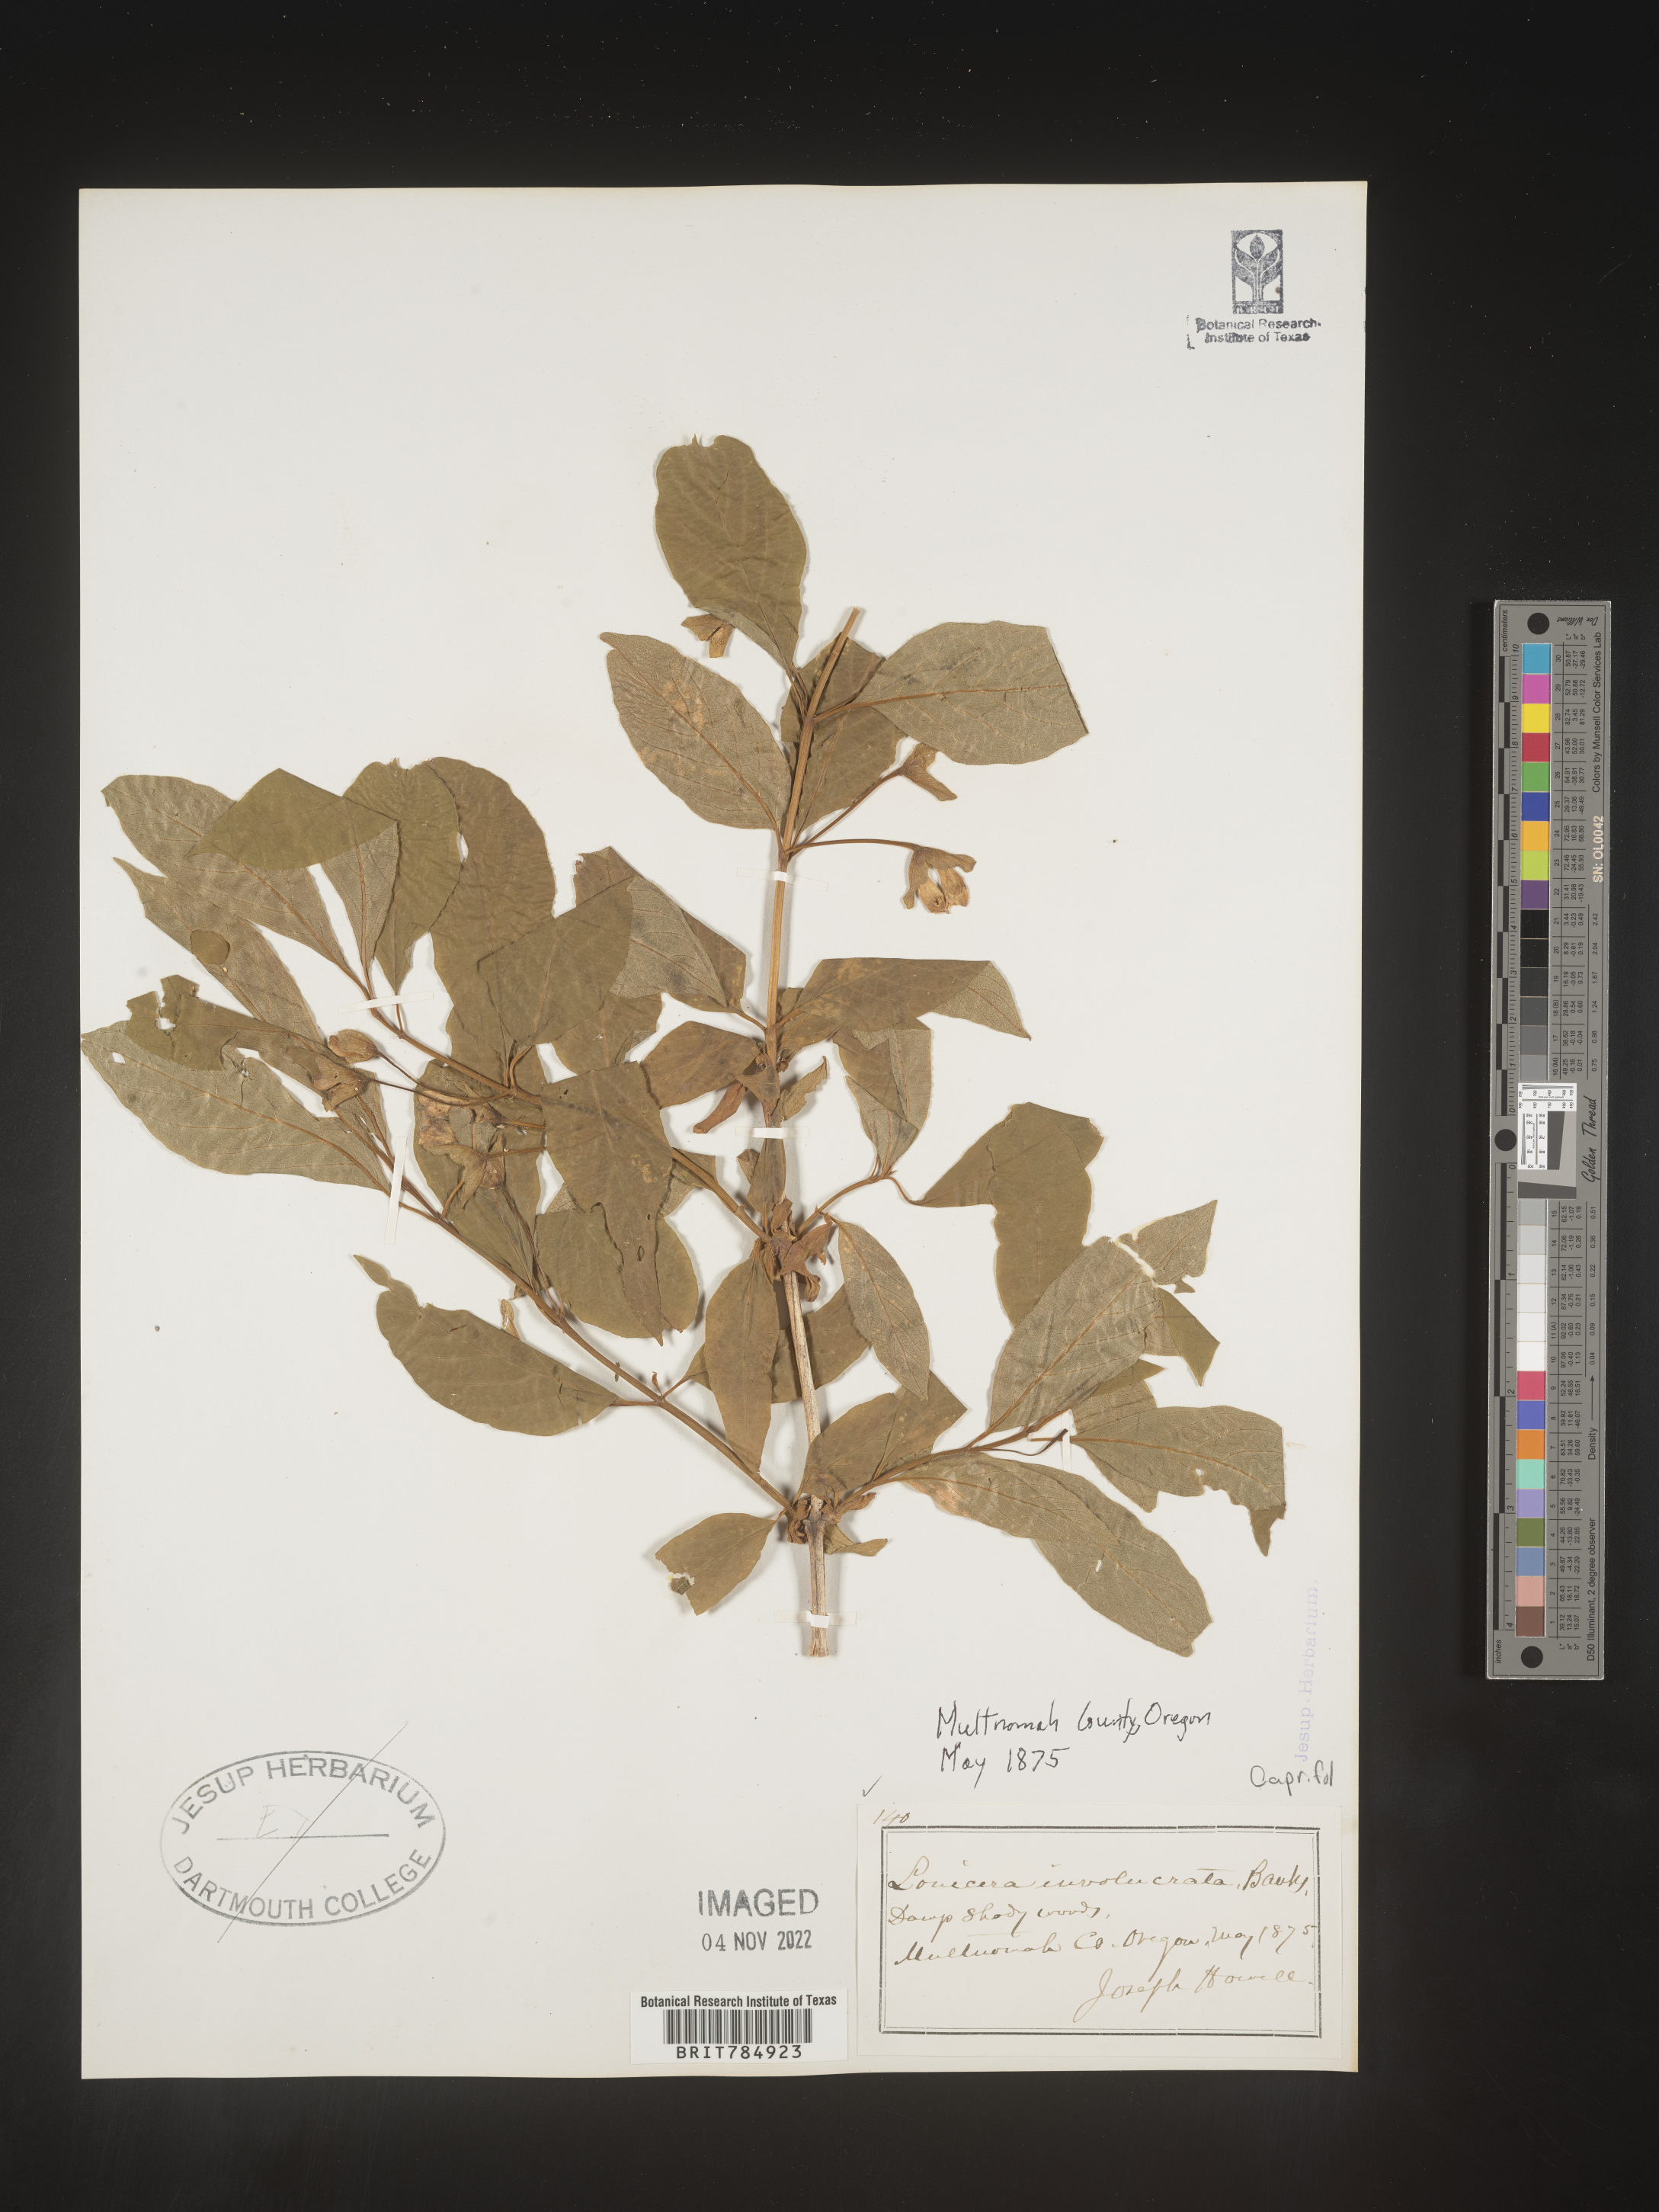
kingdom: Plantae
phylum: Tracheophyta
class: Magnoliopsida
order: Dipsacales
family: Caprifoliaceae
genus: Lonicera
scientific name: Lonicera involucrata
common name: Californian honeysuckle
